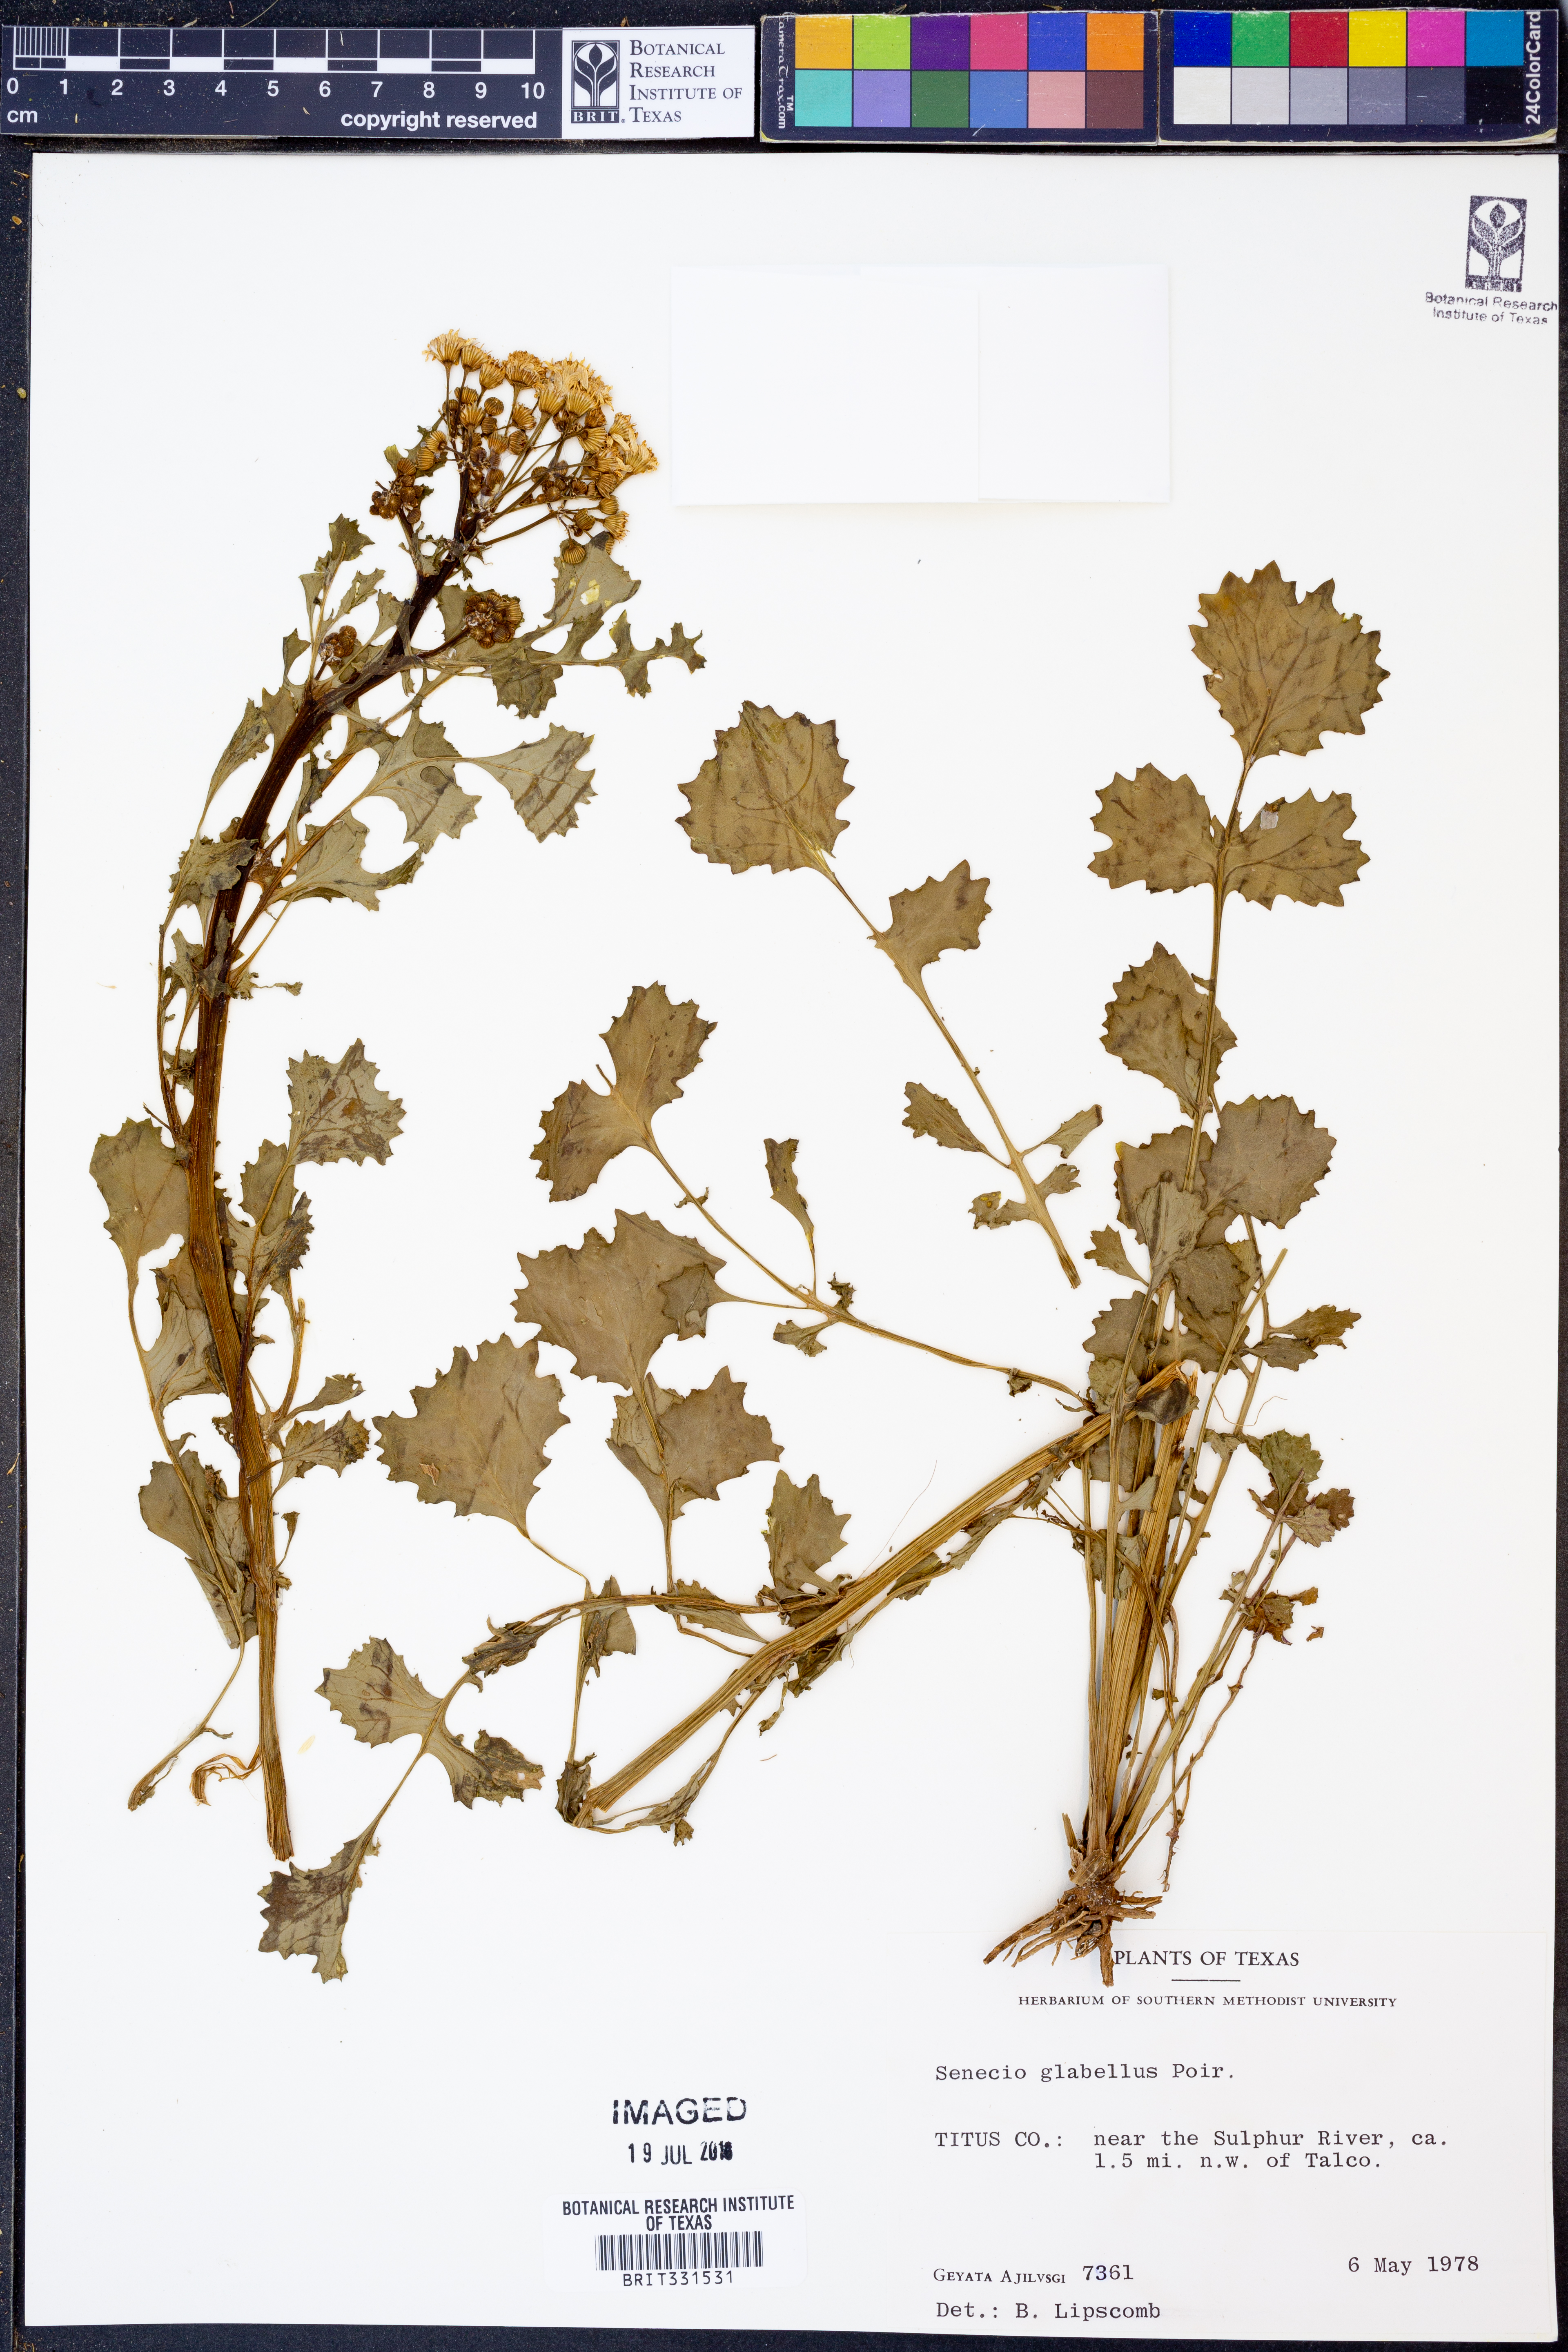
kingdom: Plantae
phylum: Tracheophyta
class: Magnoliopsida
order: Asterales
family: Asteraceae
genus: Tephroseris
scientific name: Tephroseris praticola
